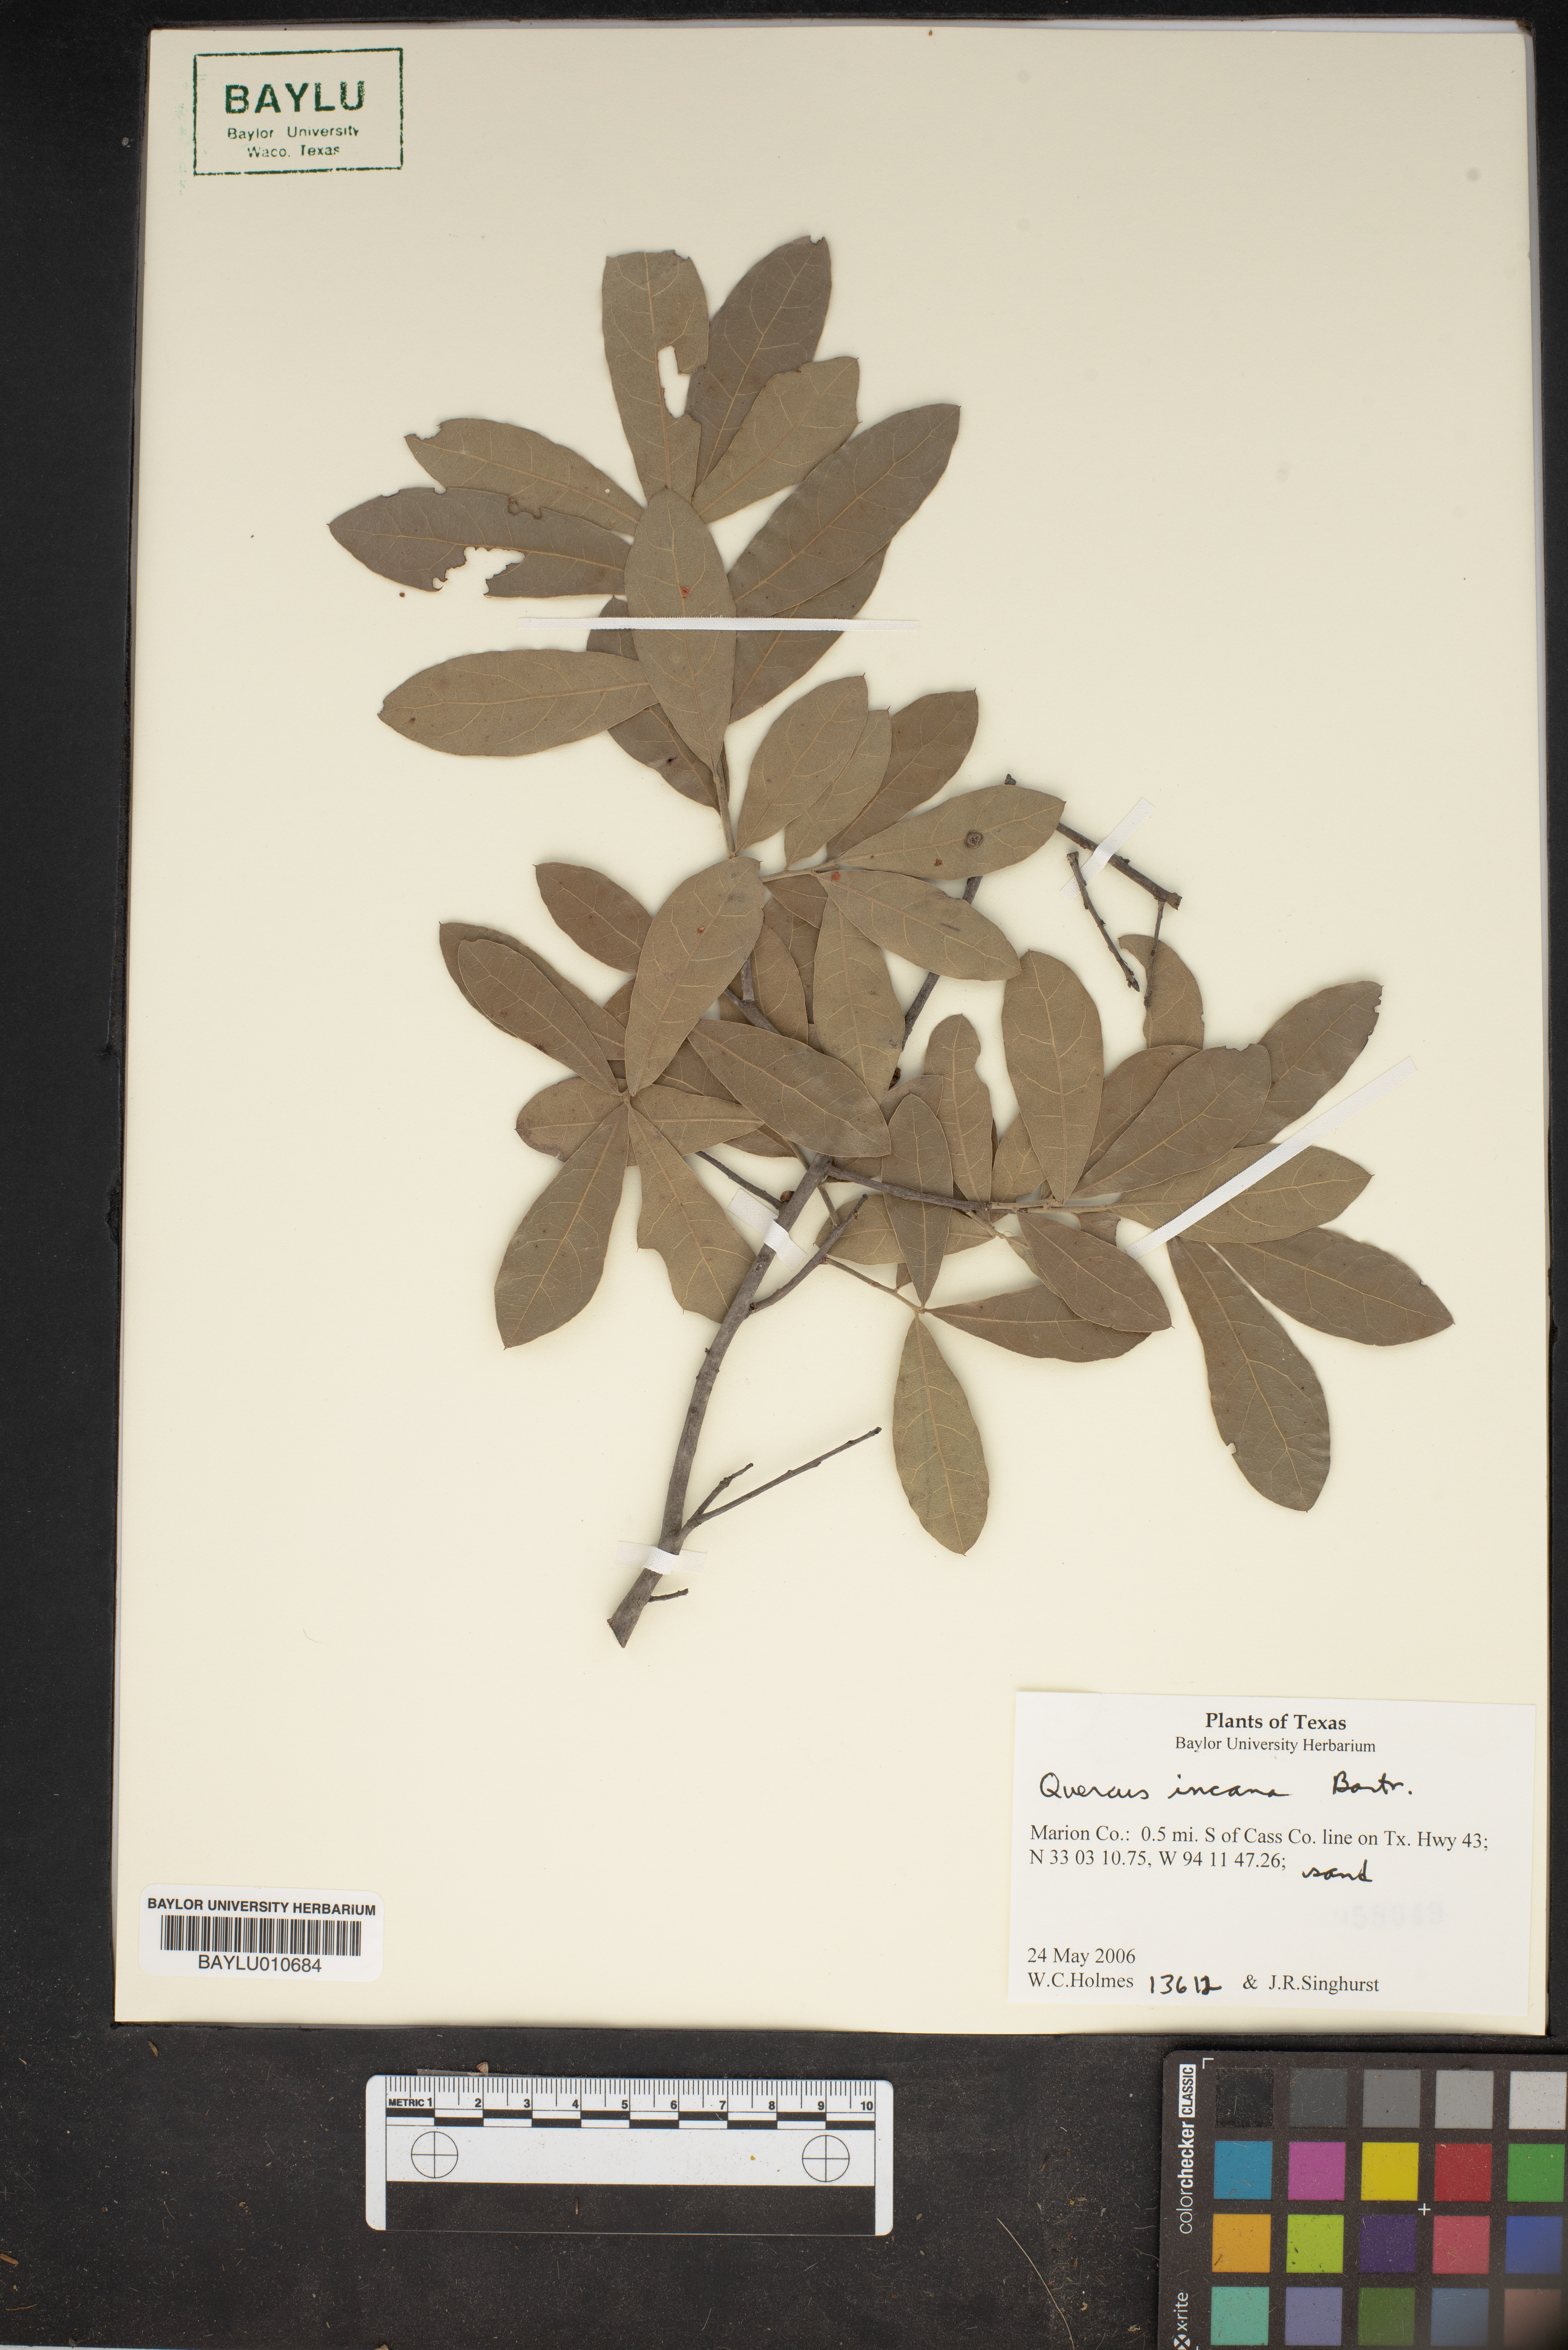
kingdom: Plantae
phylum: Tracheophyta
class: Magnoliopsida
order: Fagales
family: Fagaceae
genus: Quercus
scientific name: Quercus incana
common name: Bluejack oak
